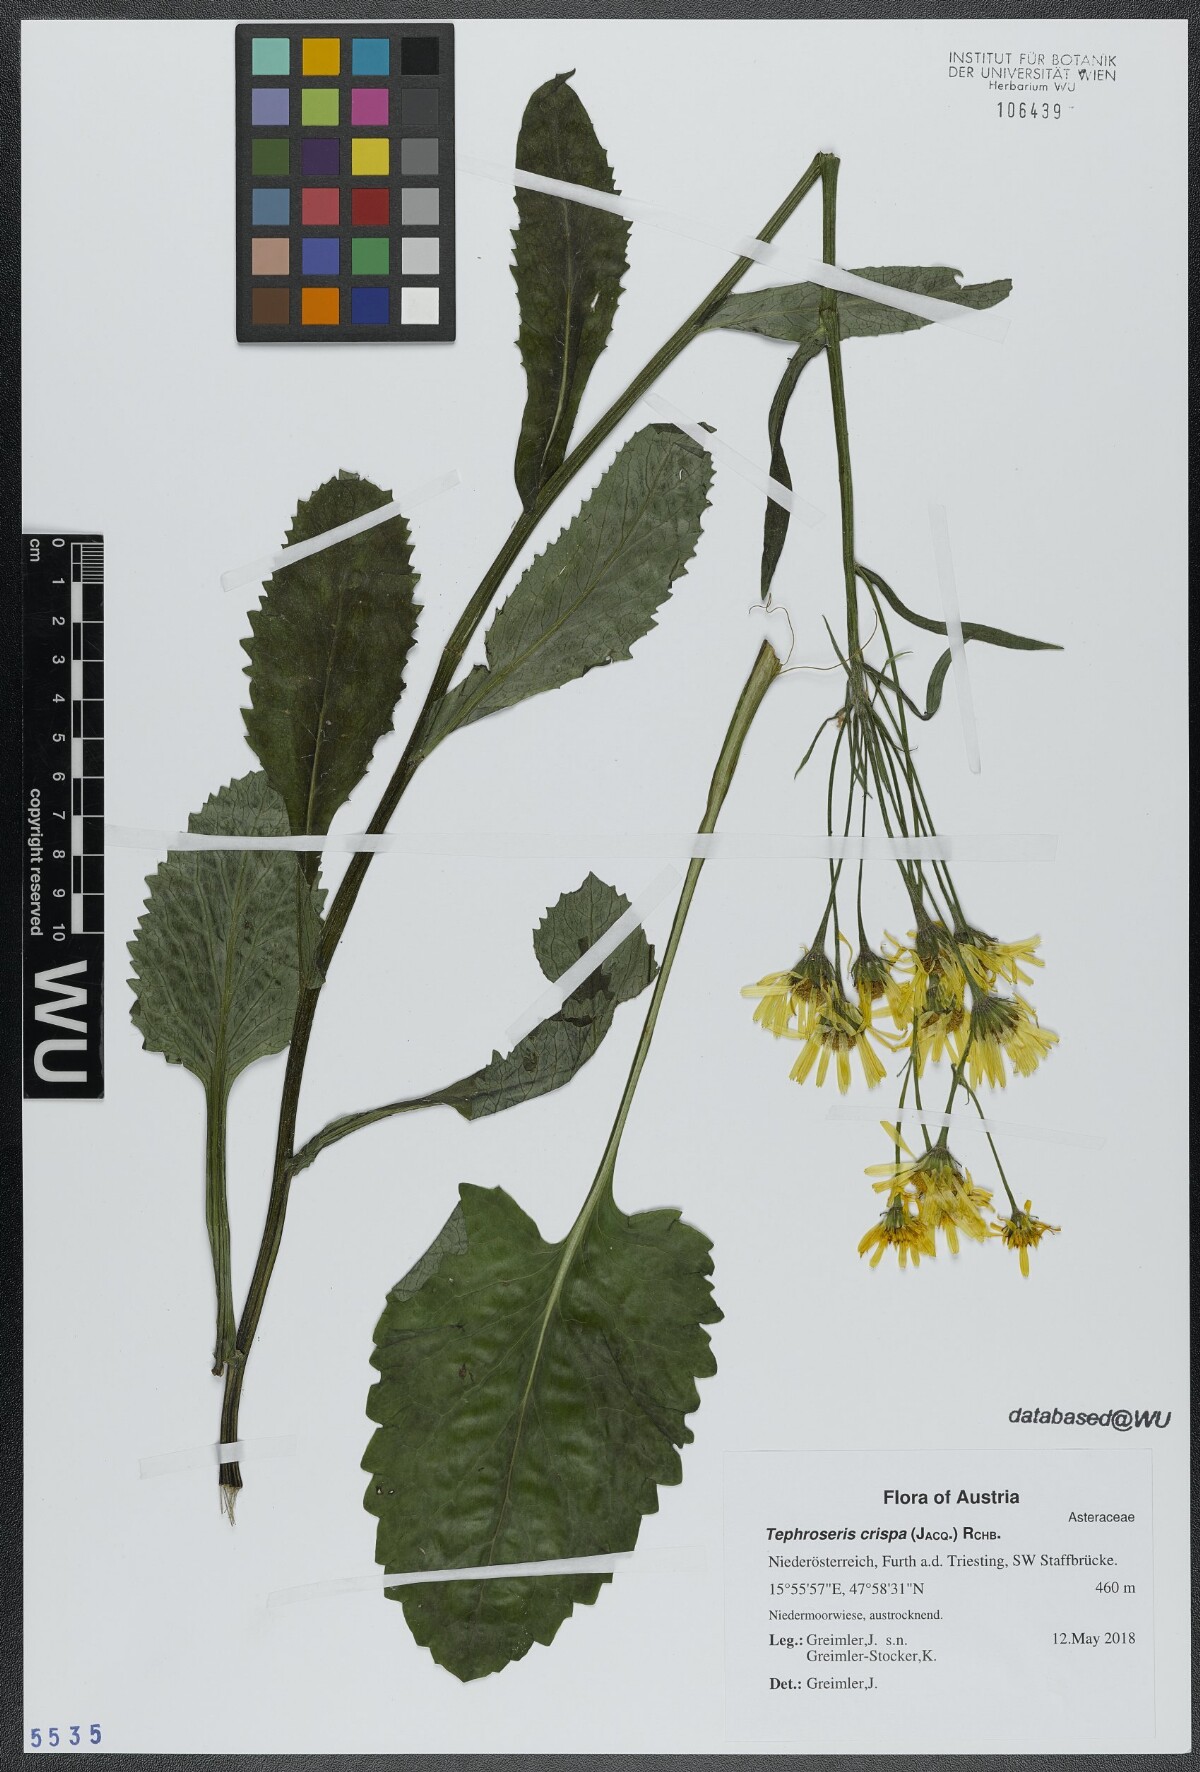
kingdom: Plantae
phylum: Tracheophyta
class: Magnoliopsida
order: Asterales
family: Asteraceae
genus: Tephroseris
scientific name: Tephroseris crispa
